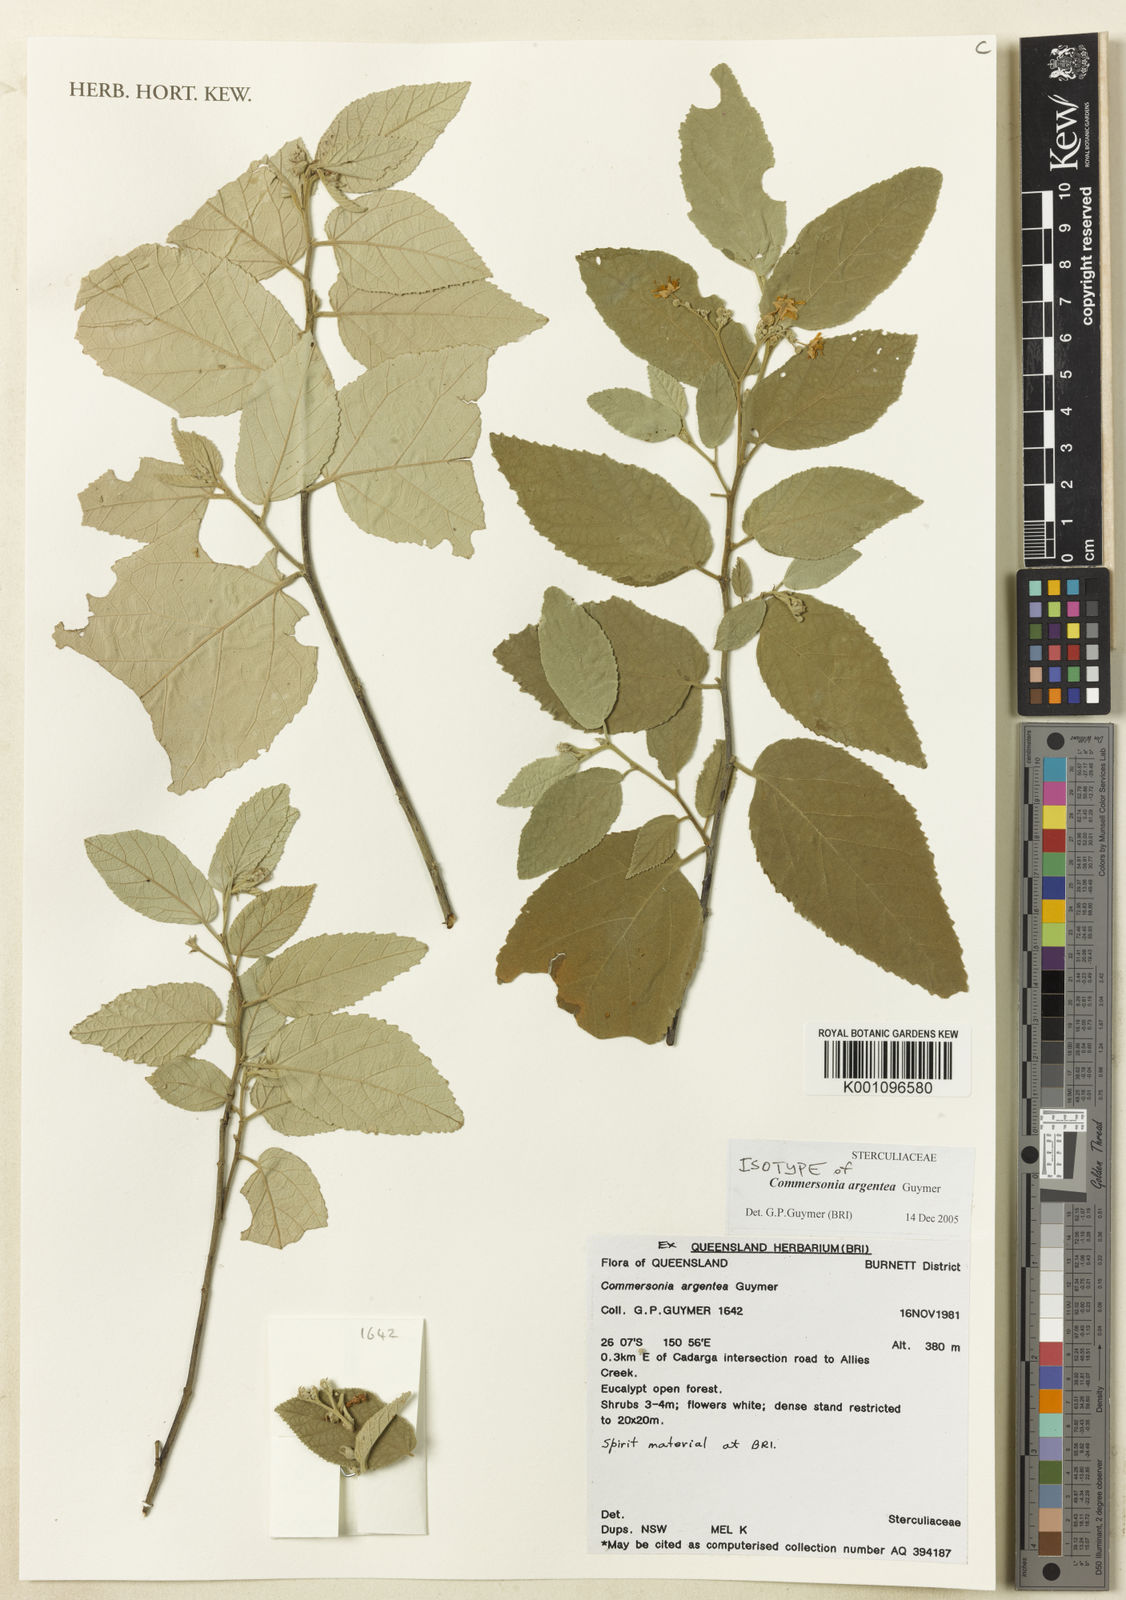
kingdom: Plantae
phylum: Tracheophyta
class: Magnoliopsida
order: Malvales
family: Malvaceae
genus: Androcalva
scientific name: Androcalva argentea
